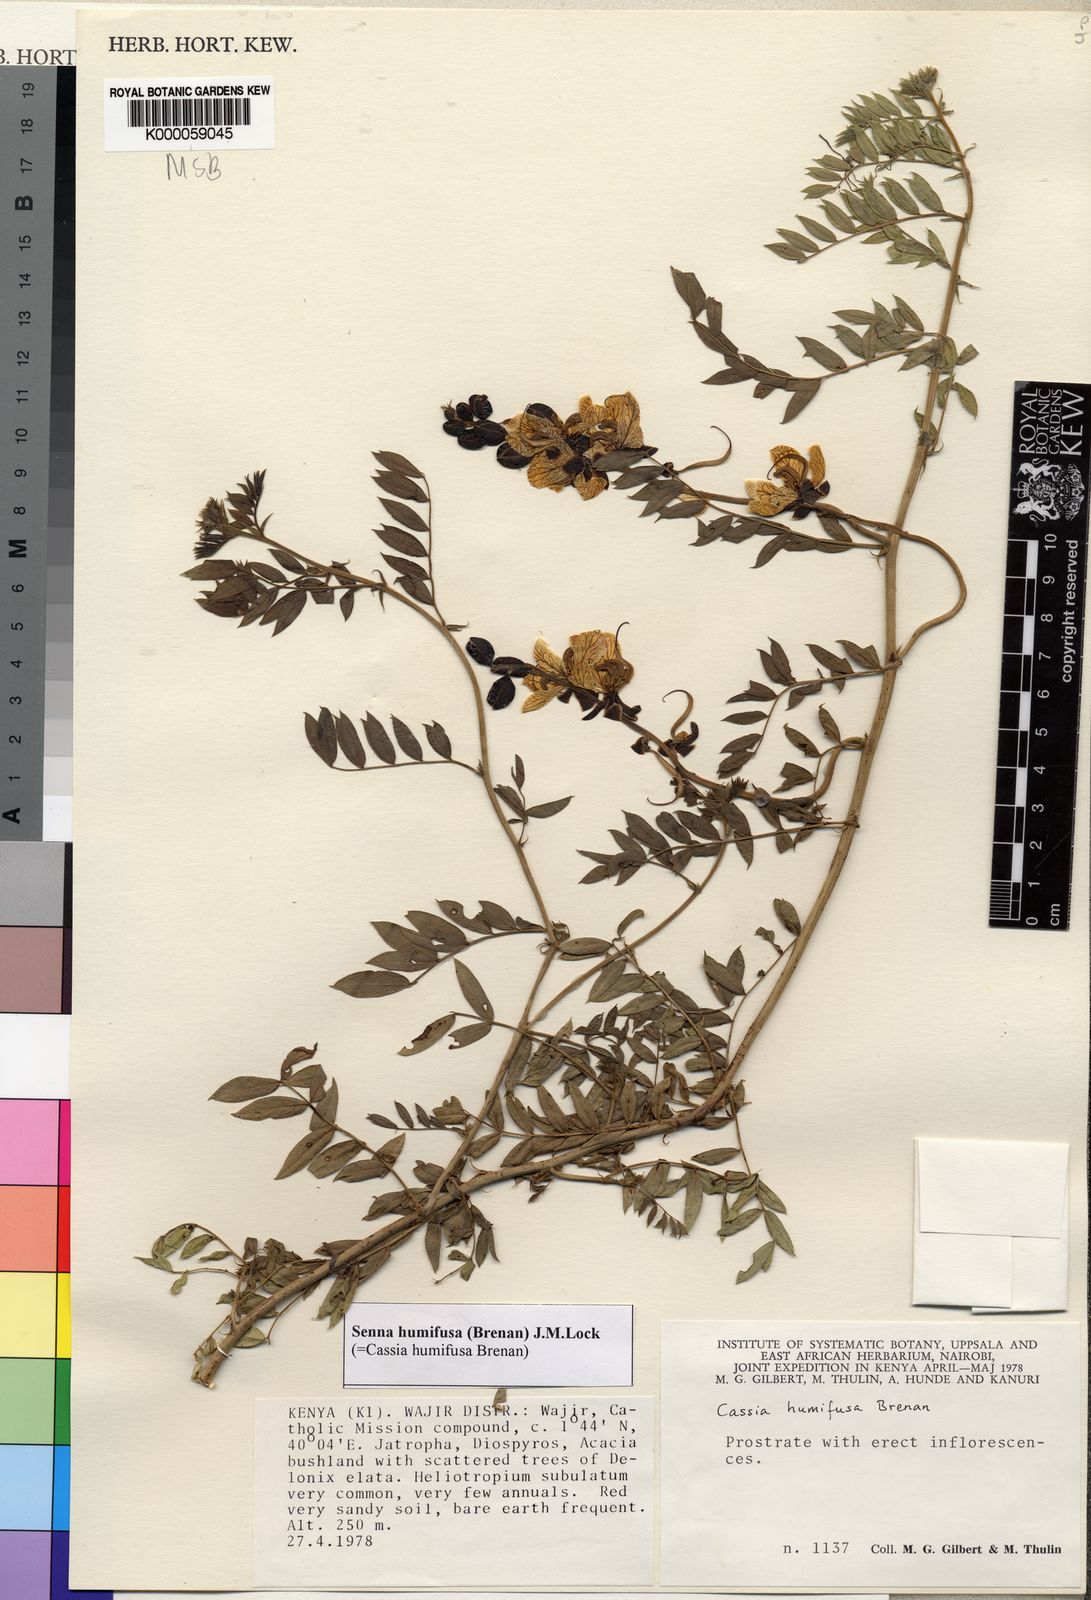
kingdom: Plantae
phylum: Tracheophyta
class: Magnoliopsida
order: Fabales
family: Fabaceae
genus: Senna
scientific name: Senna humifusa
